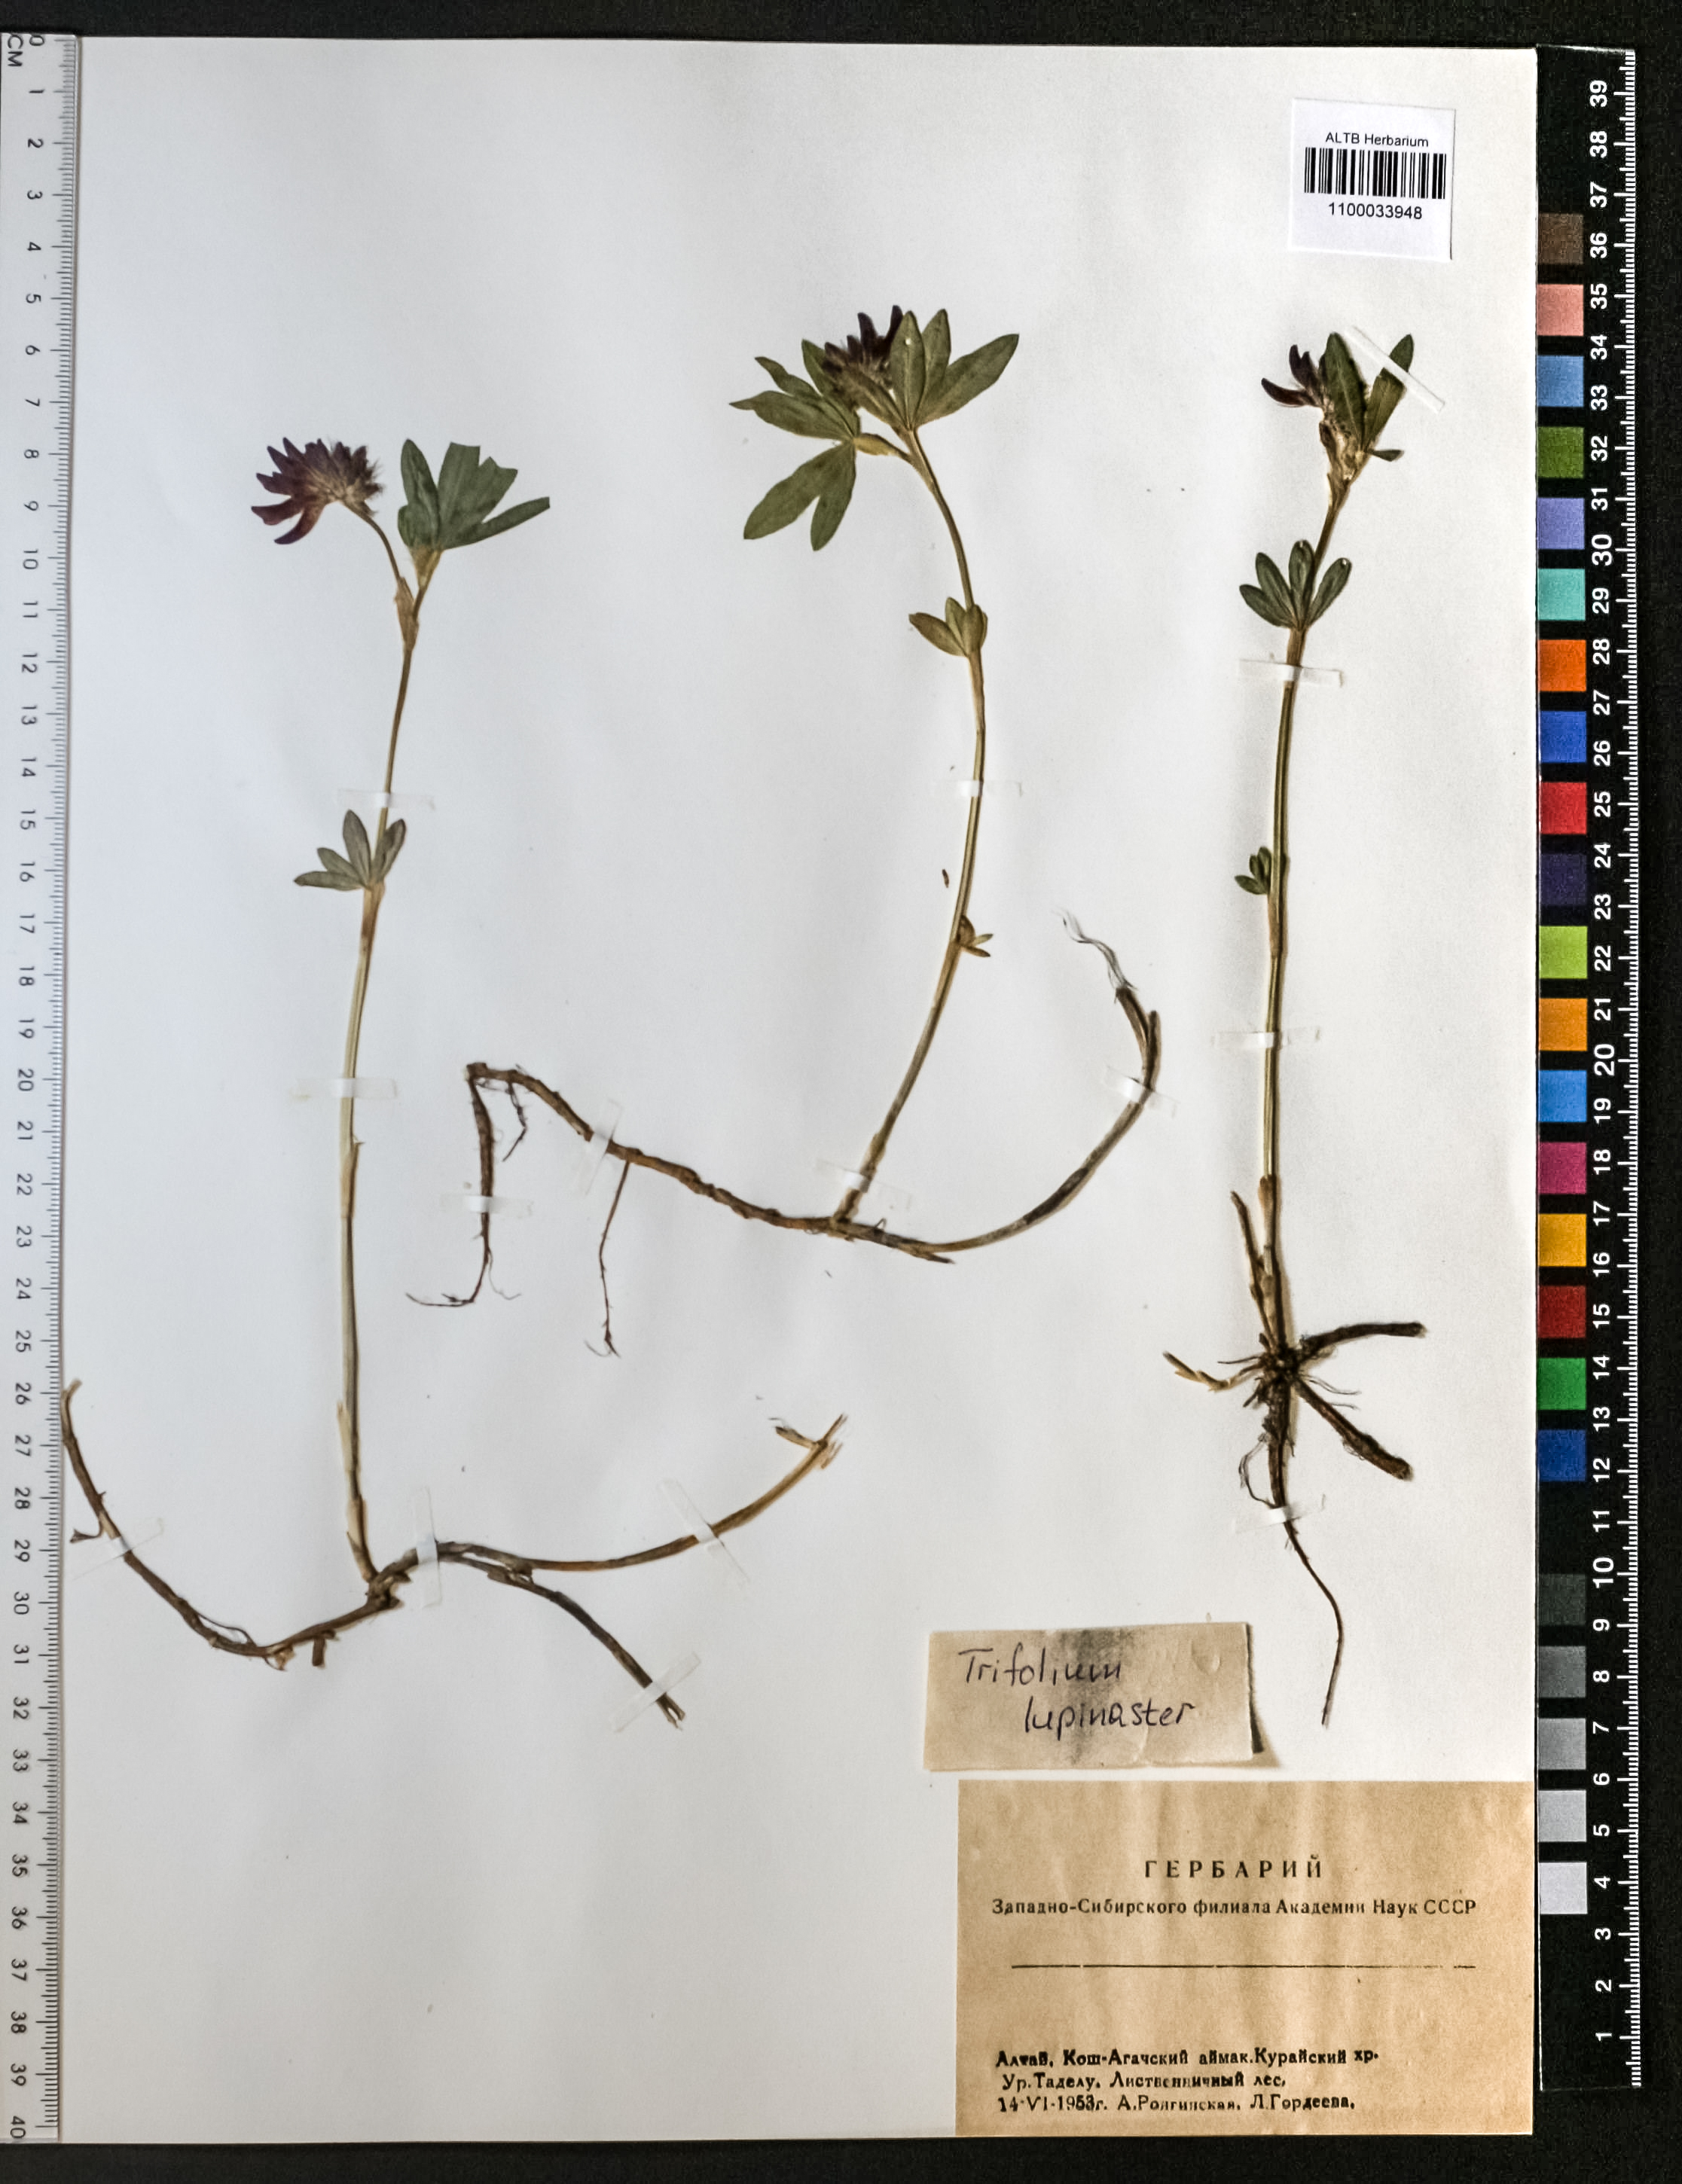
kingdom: Plantae
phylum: Tracheophyta
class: Magnoliopsida
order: Fabales
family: Fabaceae
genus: Trifolium
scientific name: Trifolium lupinaster
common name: Lupine clover
